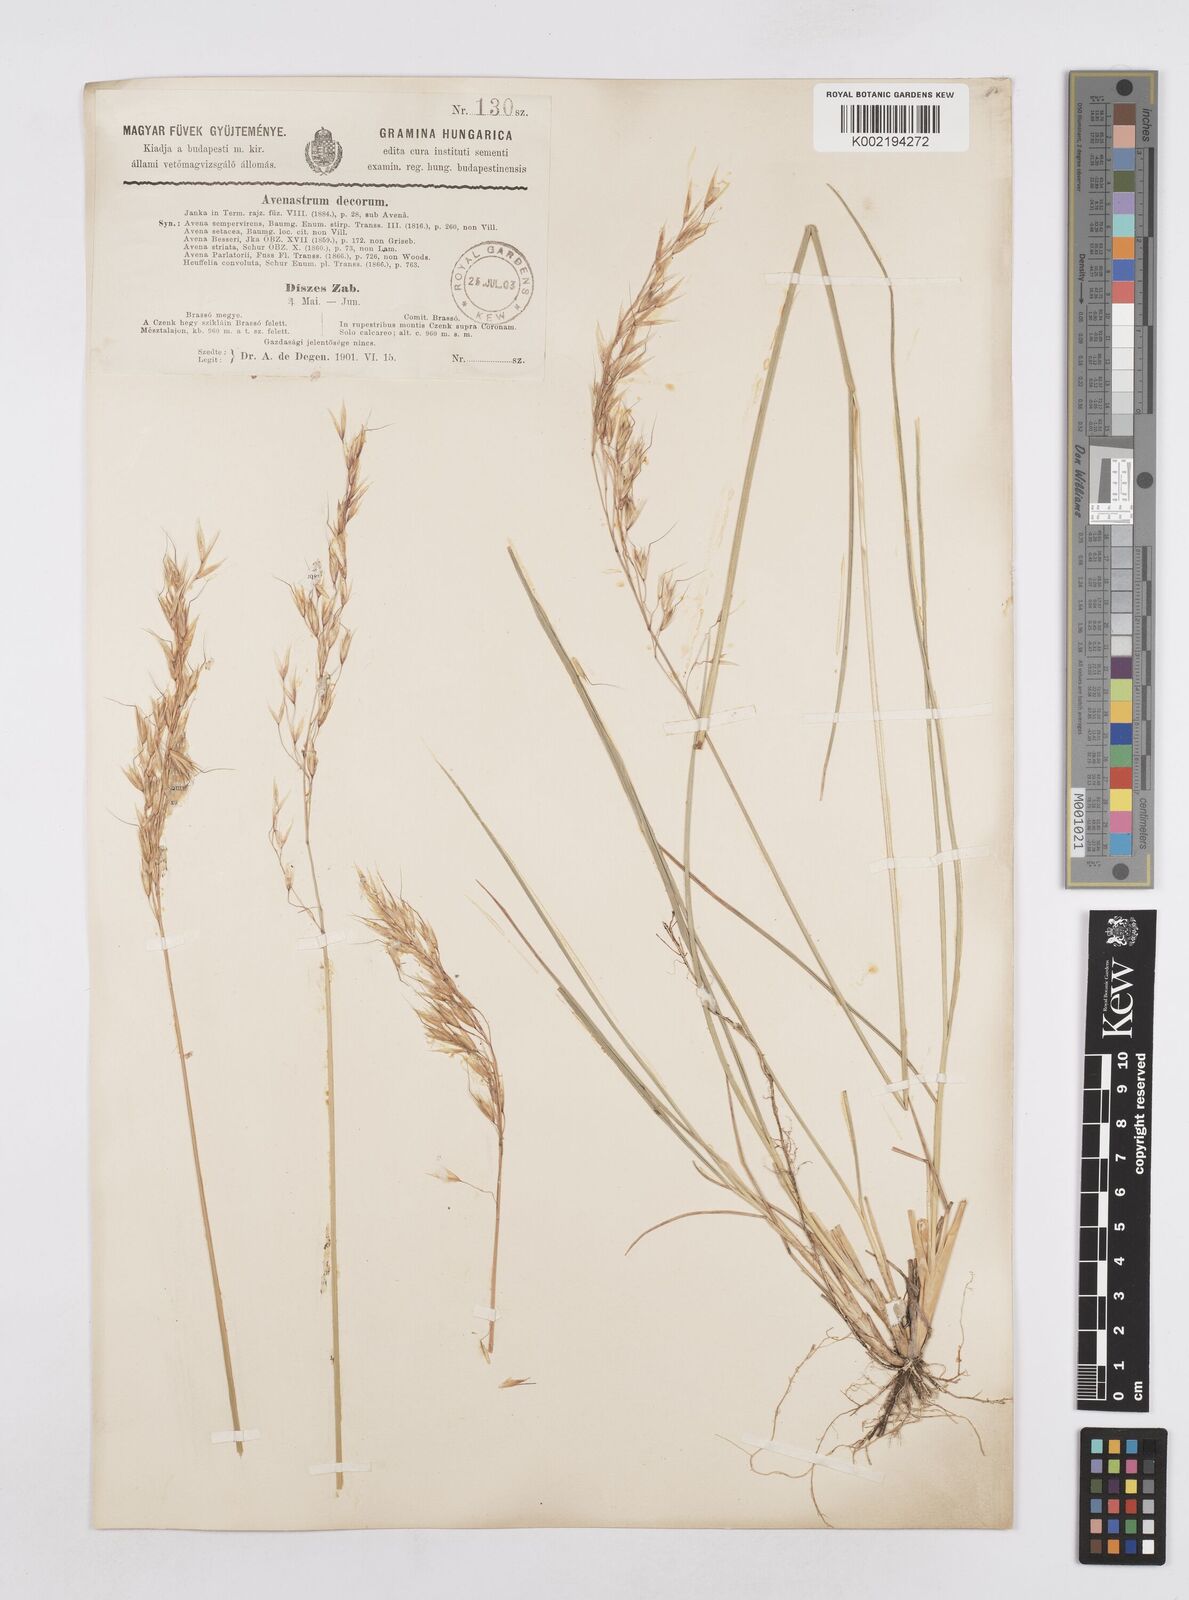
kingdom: Plantae
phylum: Tracheophyta
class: Liliopsida
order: Poales
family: Poaceae
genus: Helictotrichon
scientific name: Helictotrichon decorum
